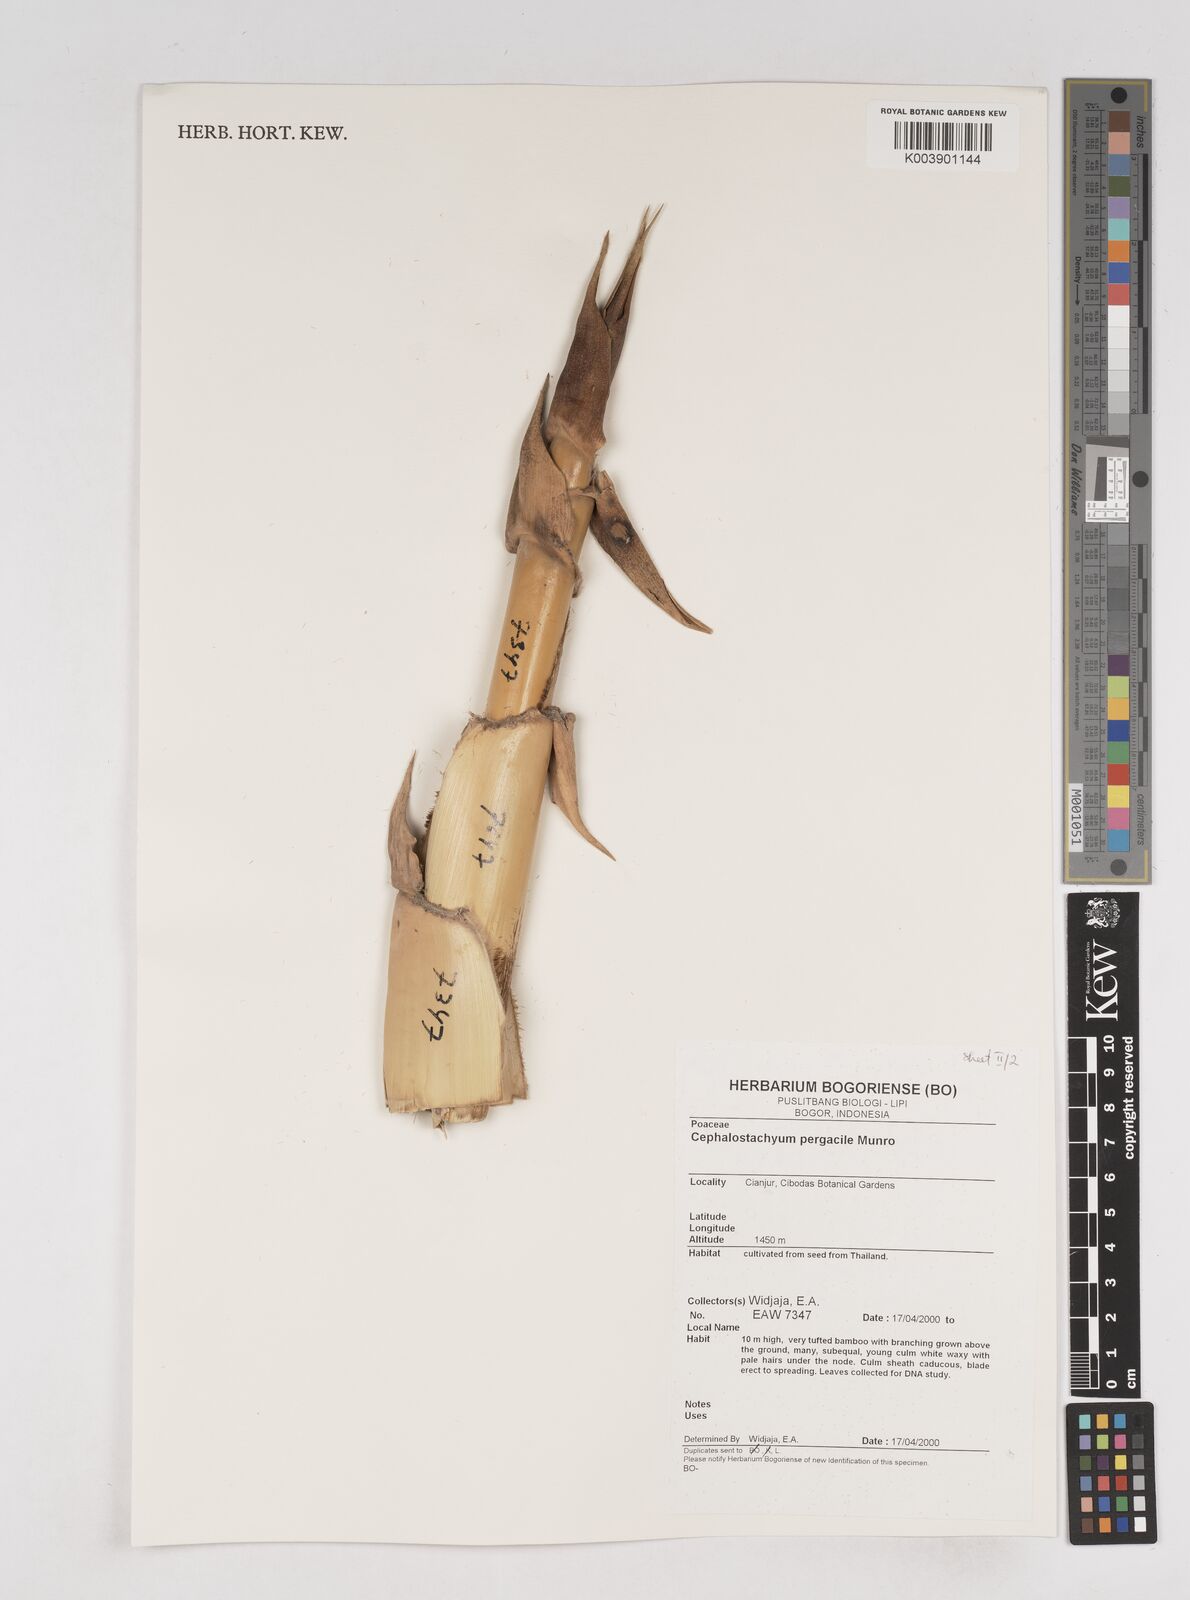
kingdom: Plantae
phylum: Tracheophyta
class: Liliopsida
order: Poales
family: Poaceae
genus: Cephalostachyum
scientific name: Cephalostachyum
